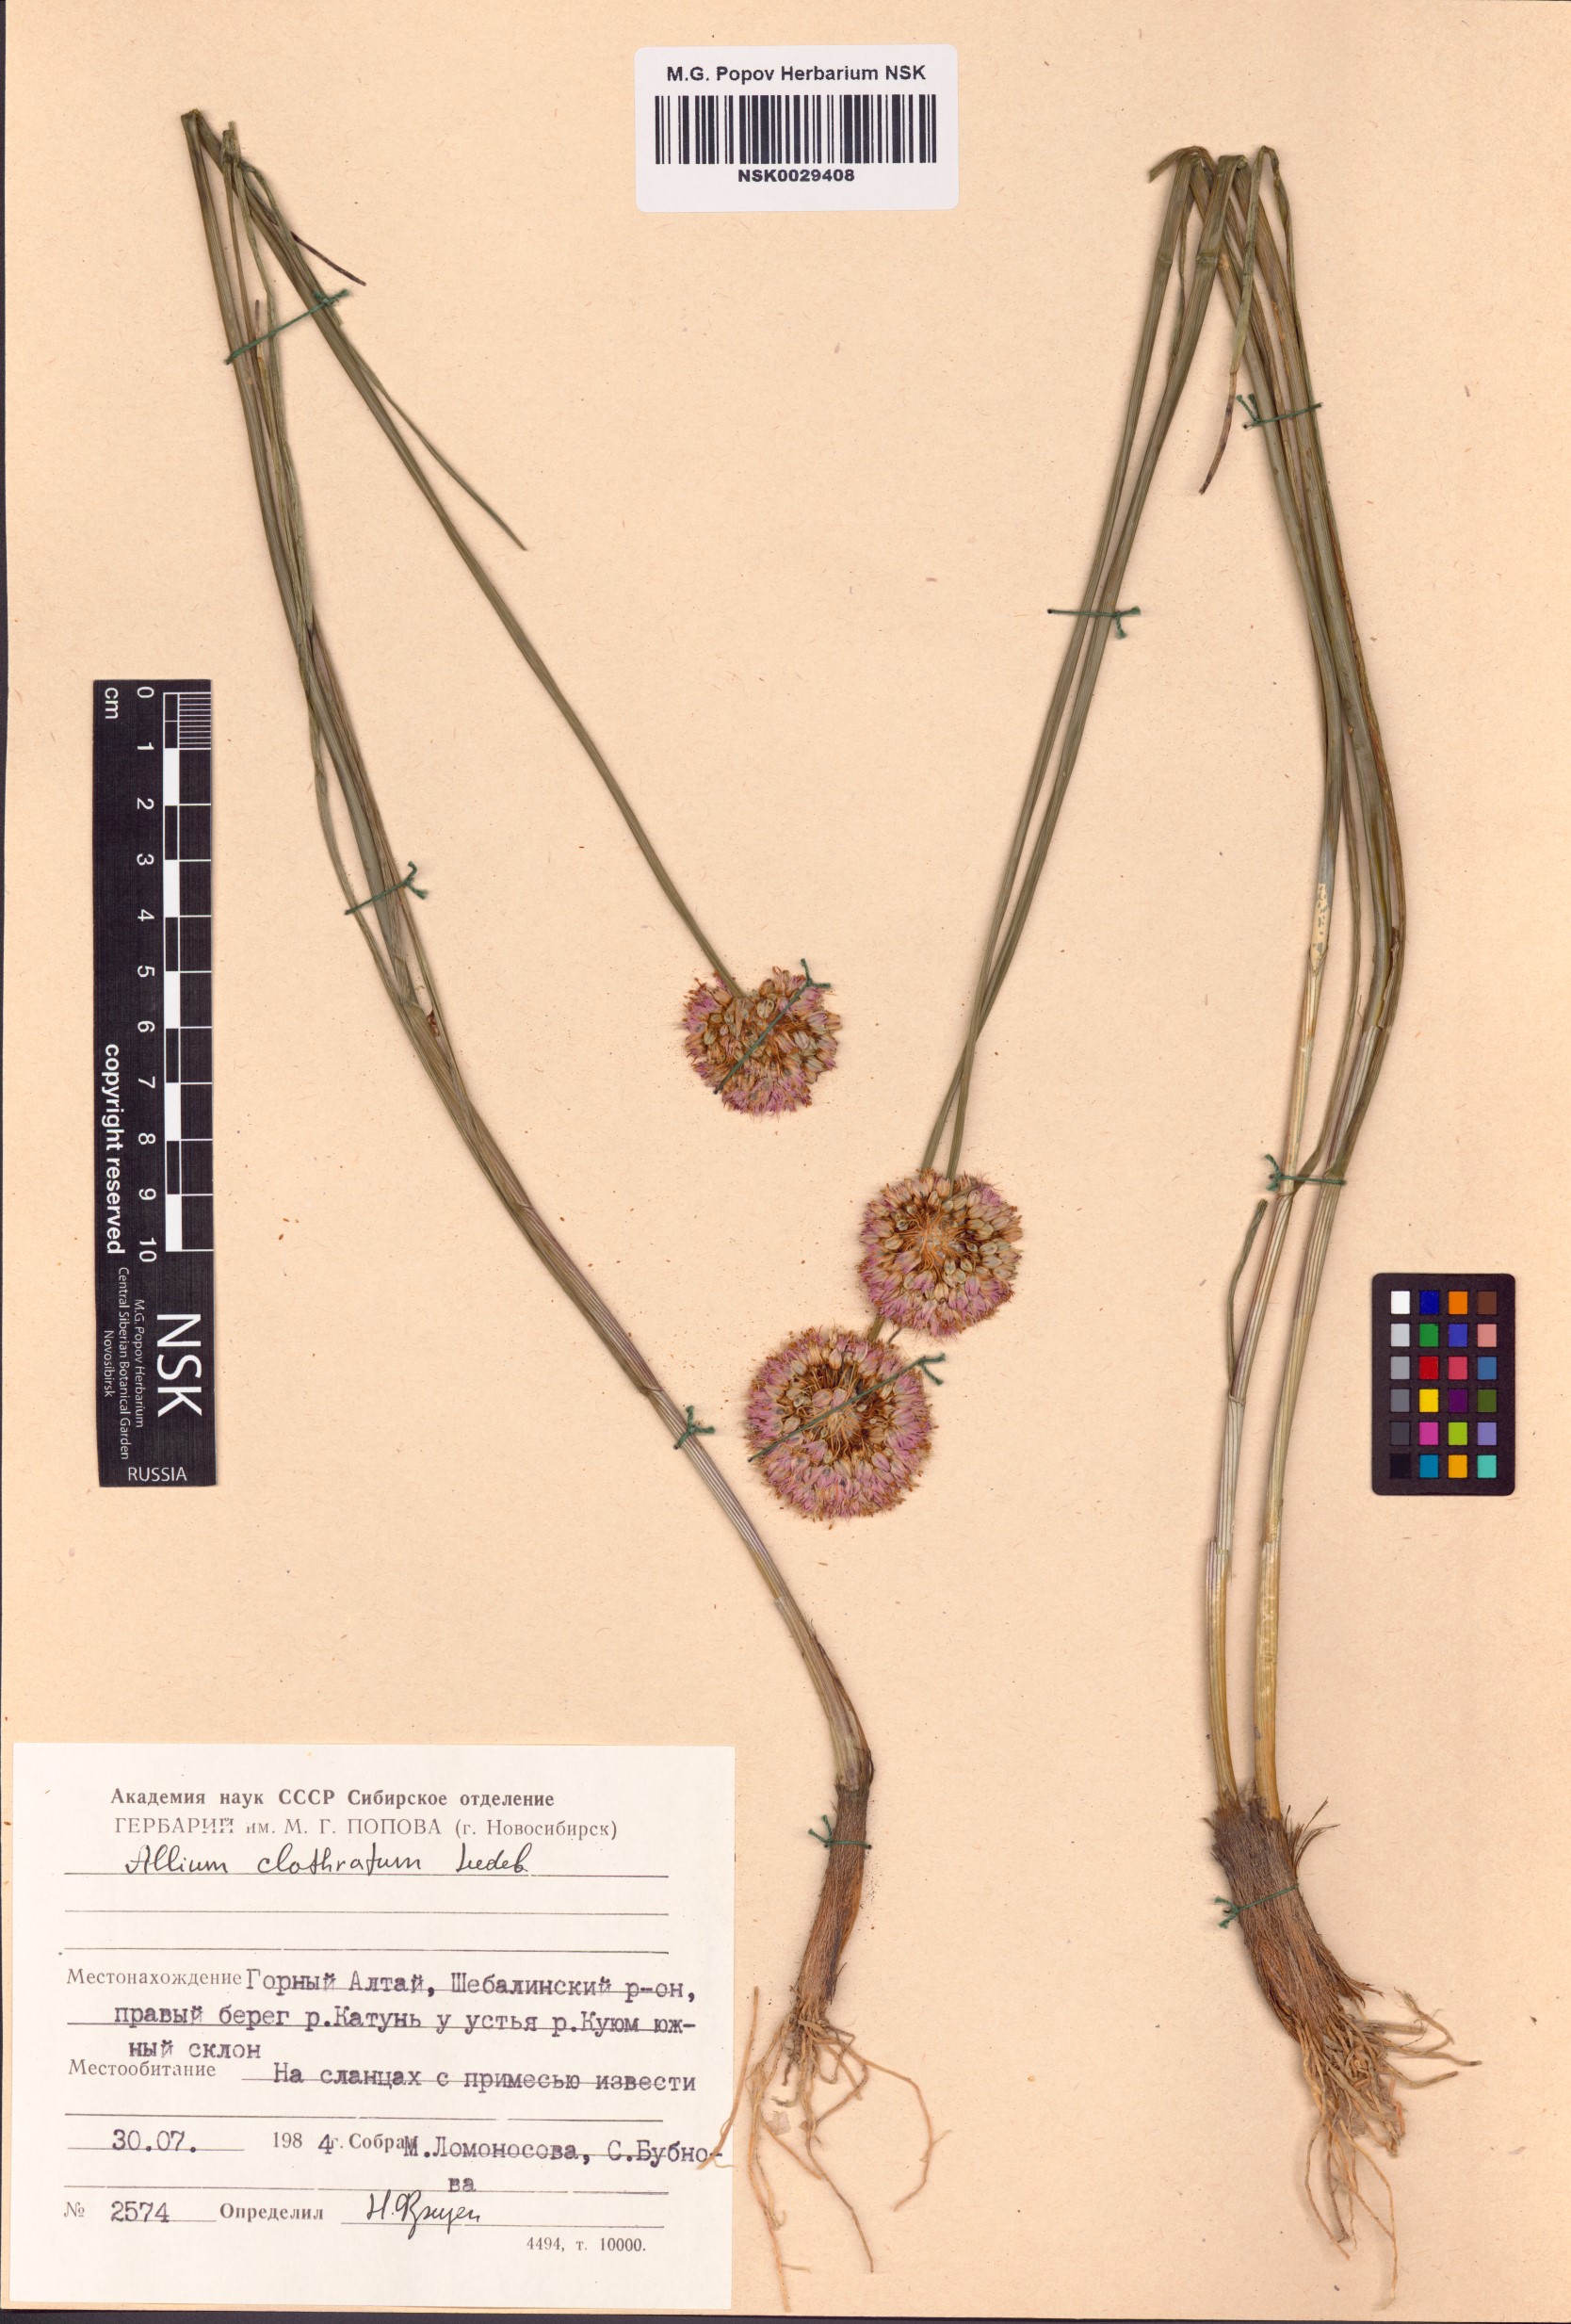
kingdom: Plantae
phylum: Tracheophyta
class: Liliopsida
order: Asparagales
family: Amaryllidaceae
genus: Allium
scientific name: Allium clathratum
